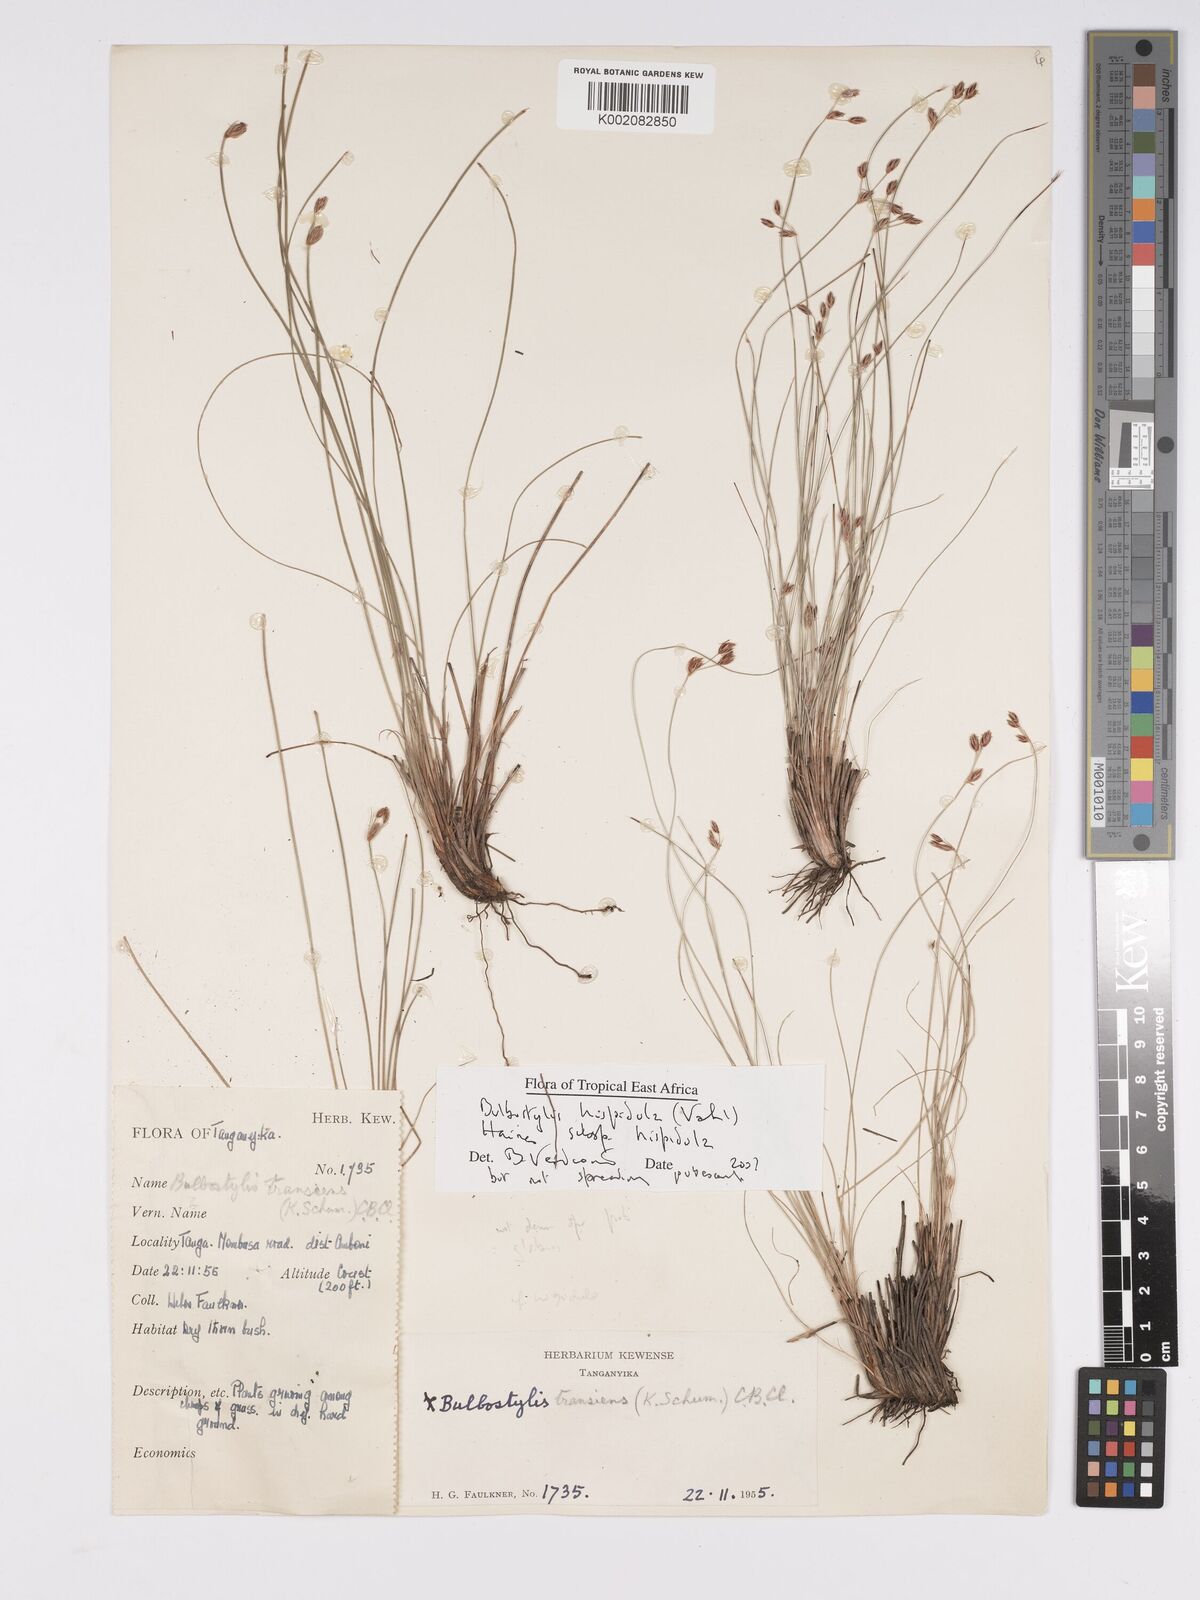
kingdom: Plantae
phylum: Tracheophyta
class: Liliopsida
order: Poales
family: Cyperaceae
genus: Bulbostylis
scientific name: Bulbostylis hispidula
